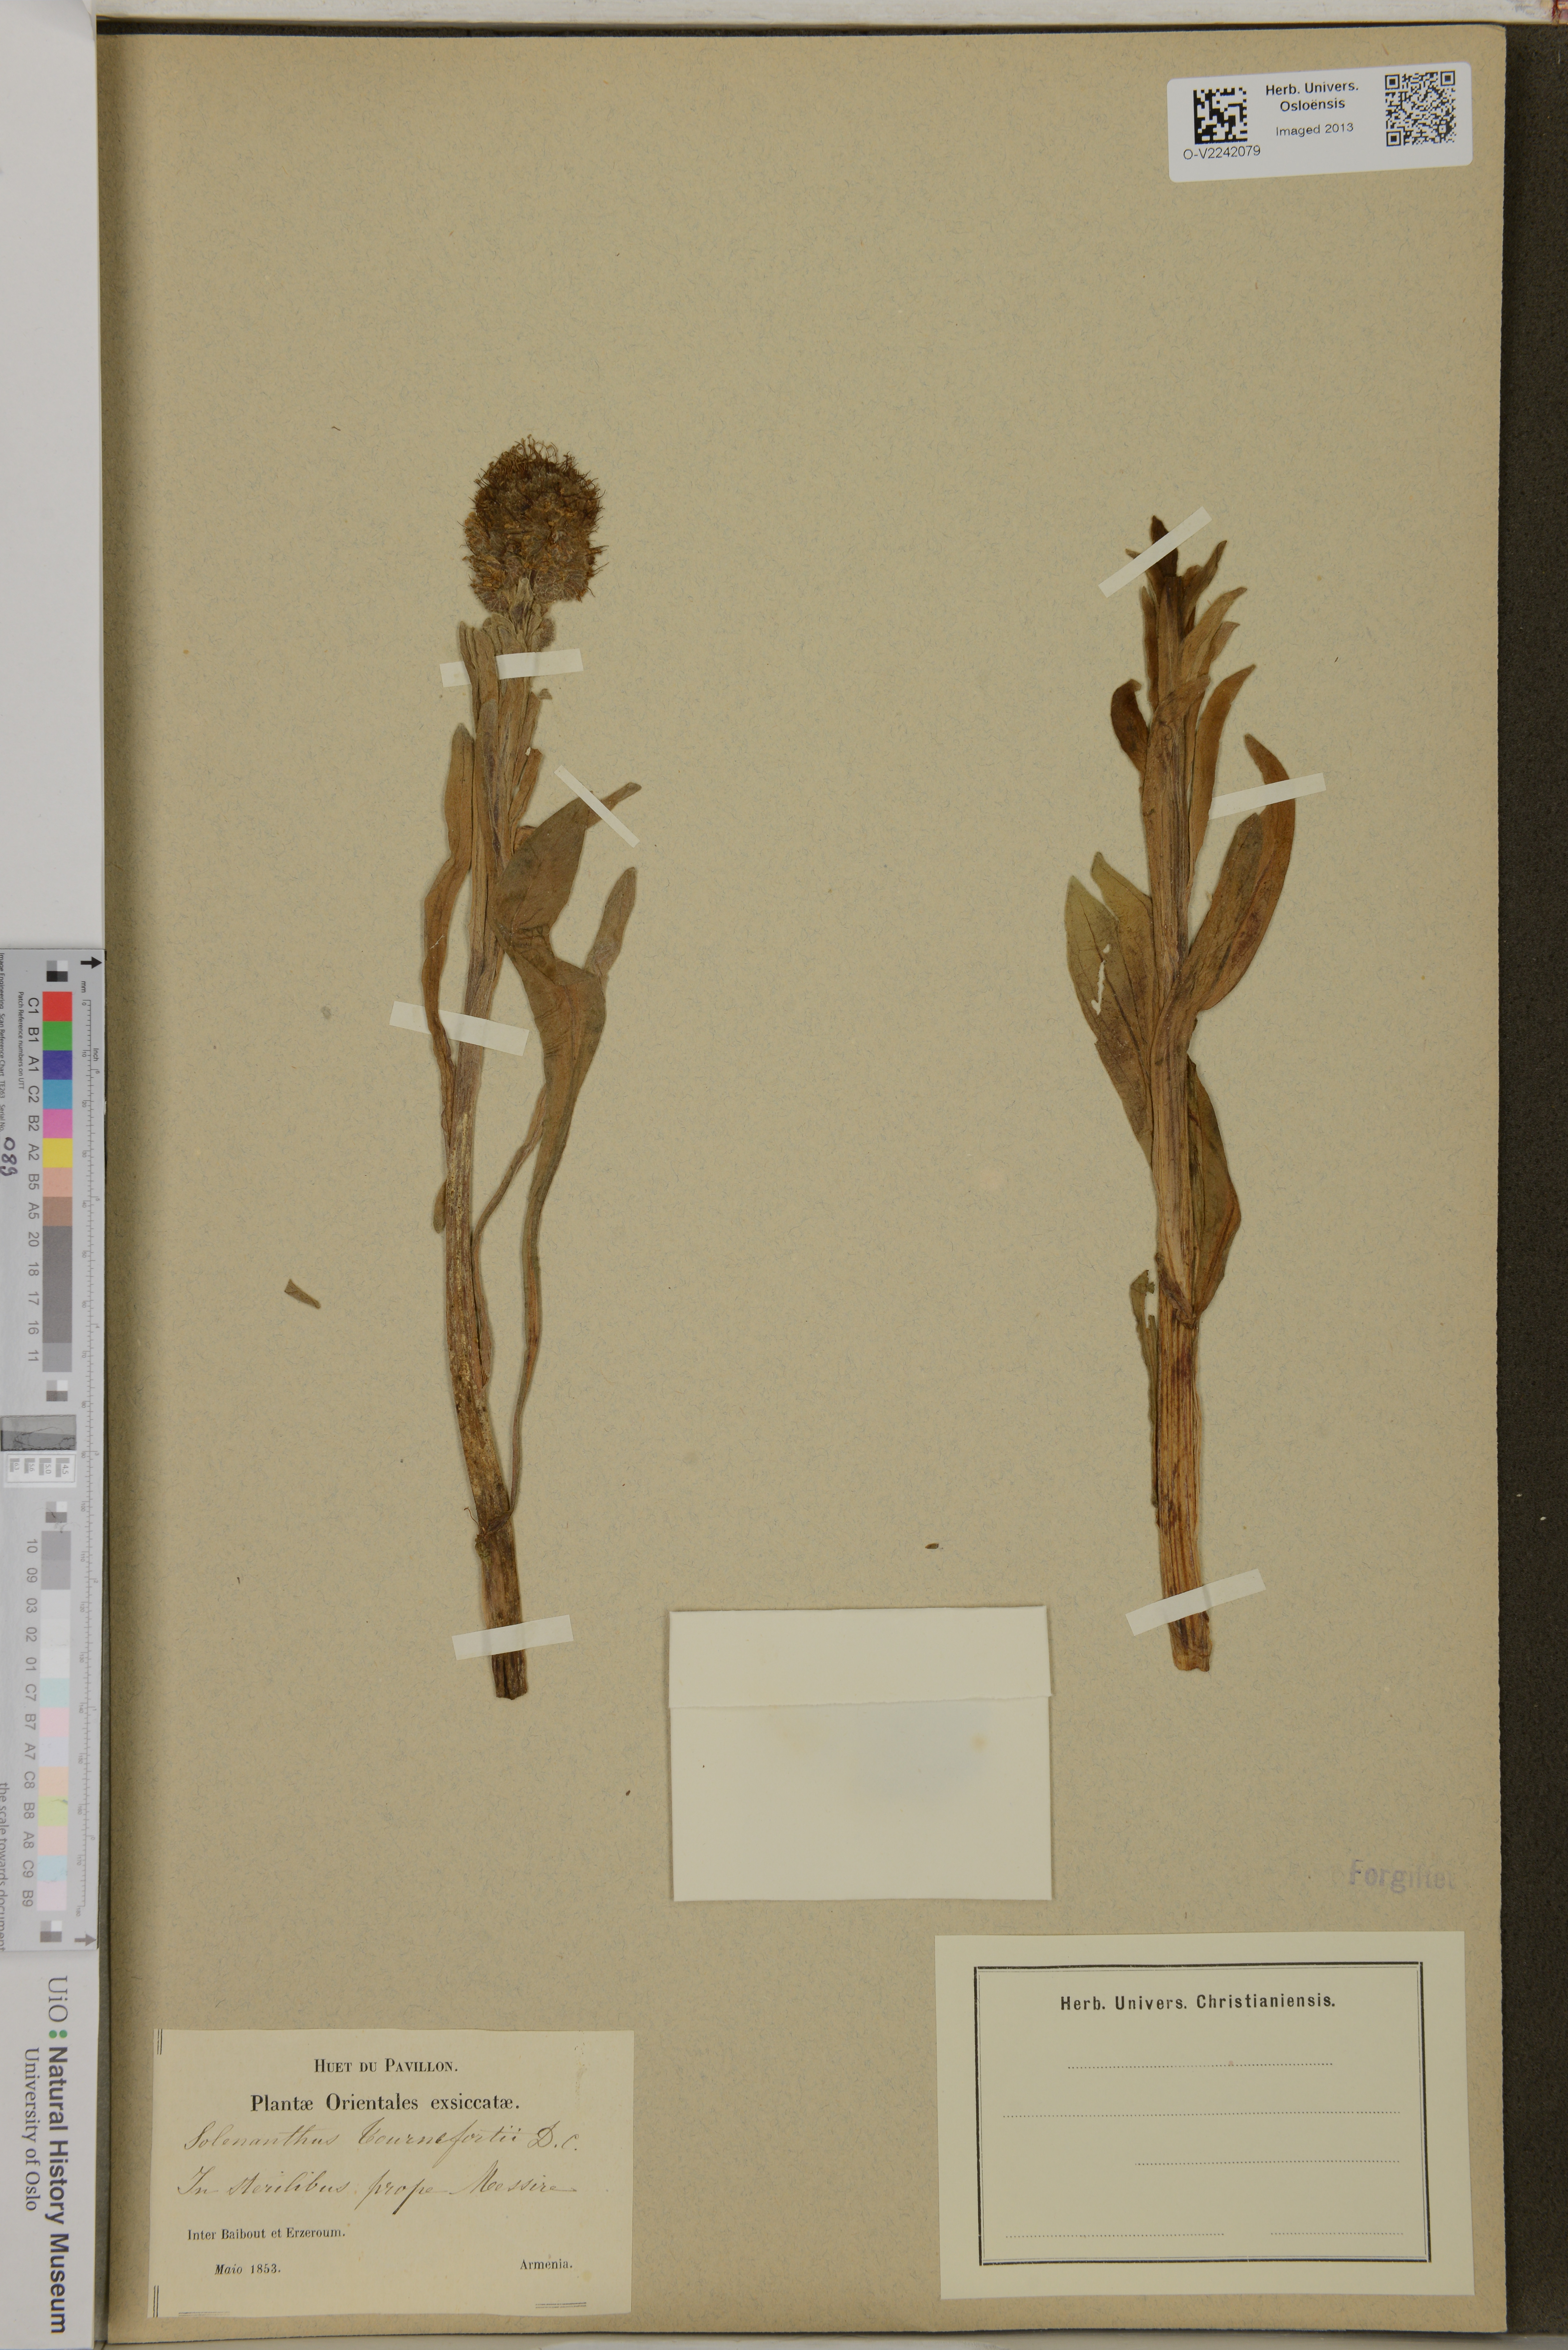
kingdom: Plantae
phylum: Tracheophyta
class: Magnoliopsida
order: Boraginales
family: Boraginaceae
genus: Solenanthus
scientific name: Solenanthus stamineus
